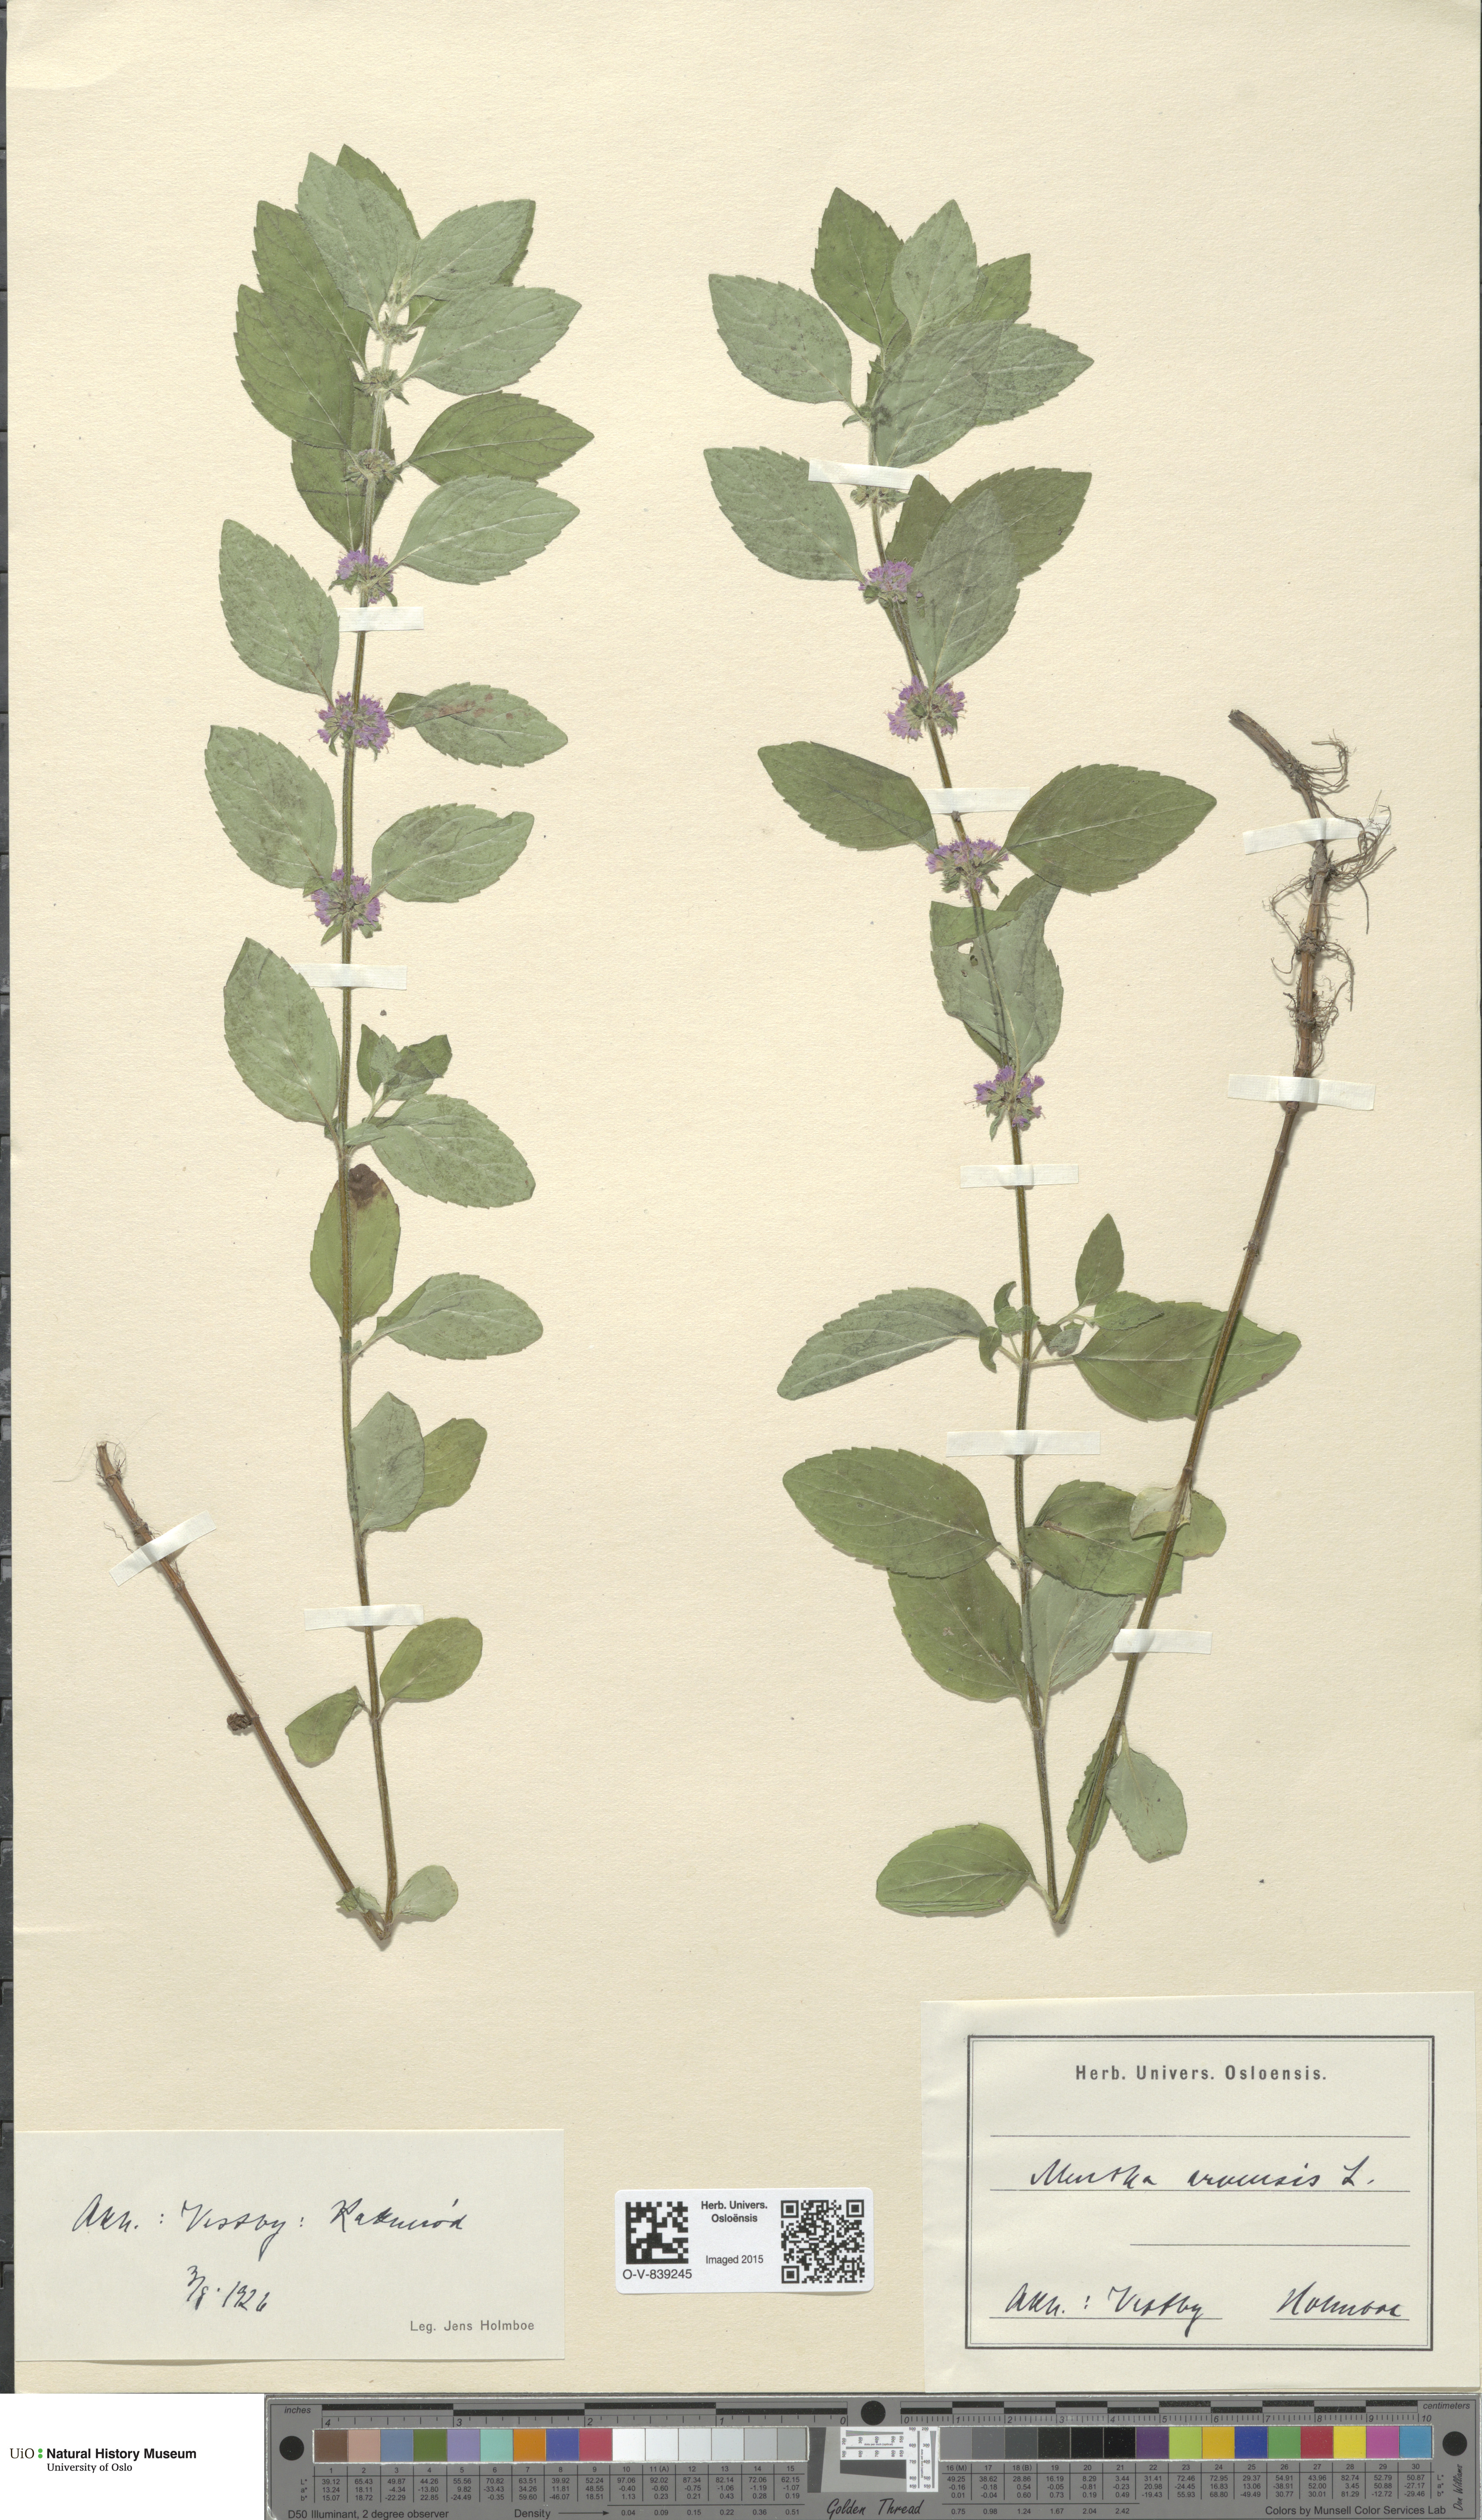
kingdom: Plantae
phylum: Tracheophyta
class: Magnoliopsida
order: Lamiales
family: Lamiaceae
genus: Mentha
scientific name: Mentha arvensis
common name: Corn mint
